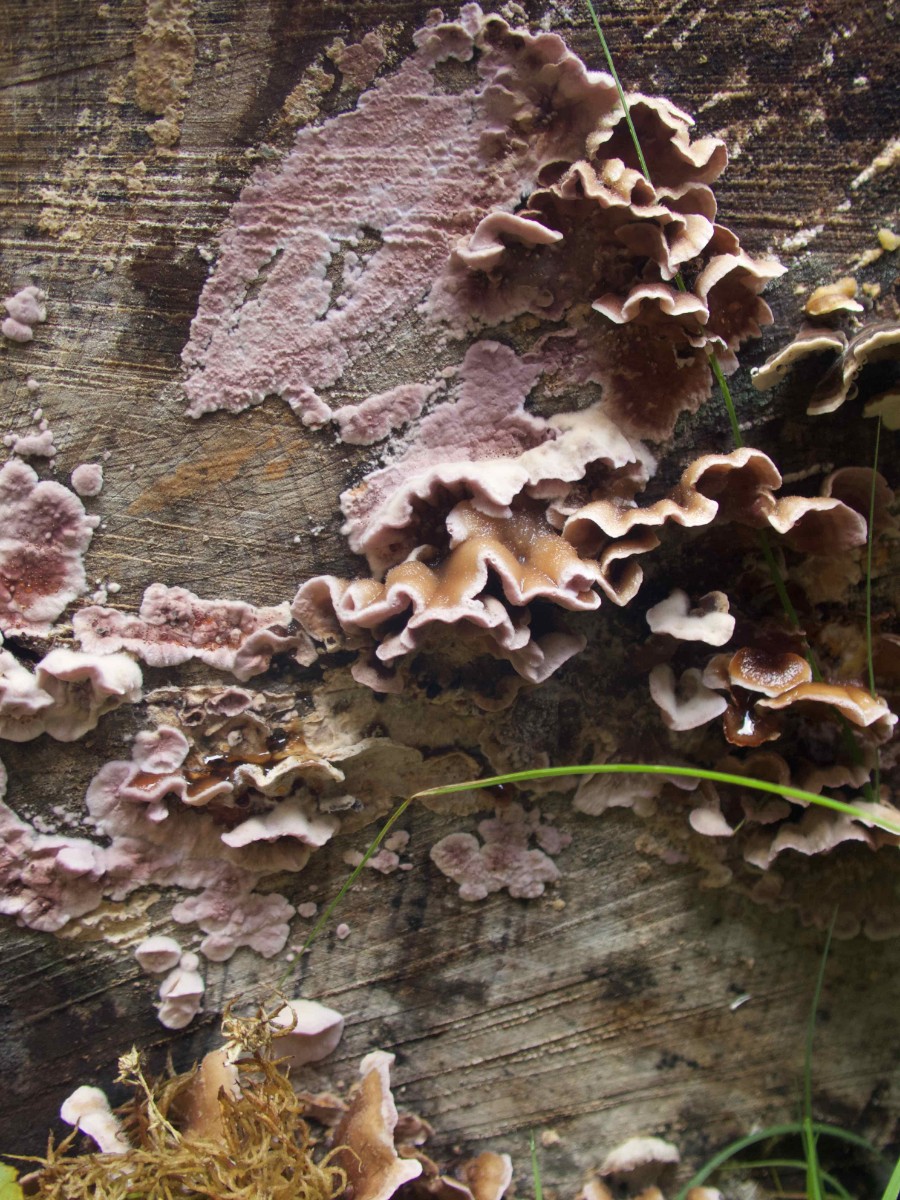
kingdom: Fungi
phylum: Basidiomycota
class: Agaricomycetes
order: Agaricales
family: Cyphellaceae
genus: Chondrostereum
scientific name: Chondrostereum purpureum
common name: purpurlædersvamp
